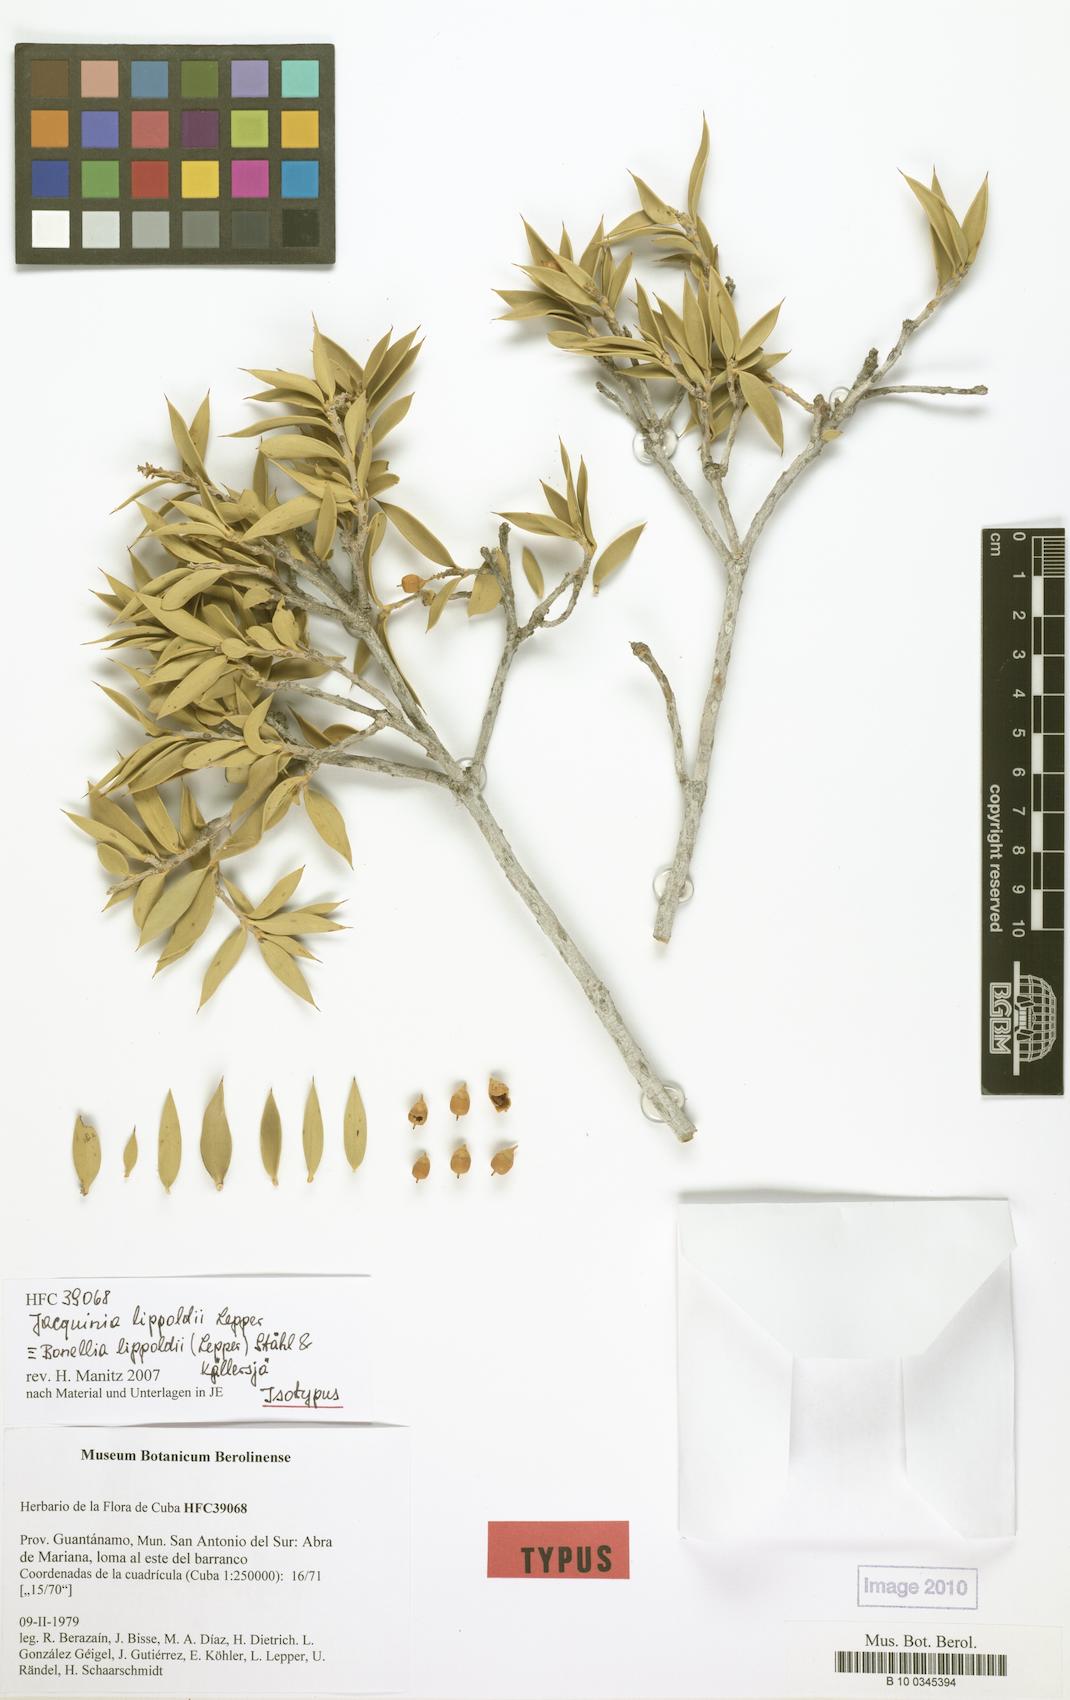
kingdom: Plantae
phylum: Tracheophyta
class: Magnoliopsida
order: Ericales
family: Primulaceae
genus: Bonellia
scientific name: Bonellia lippoldii
